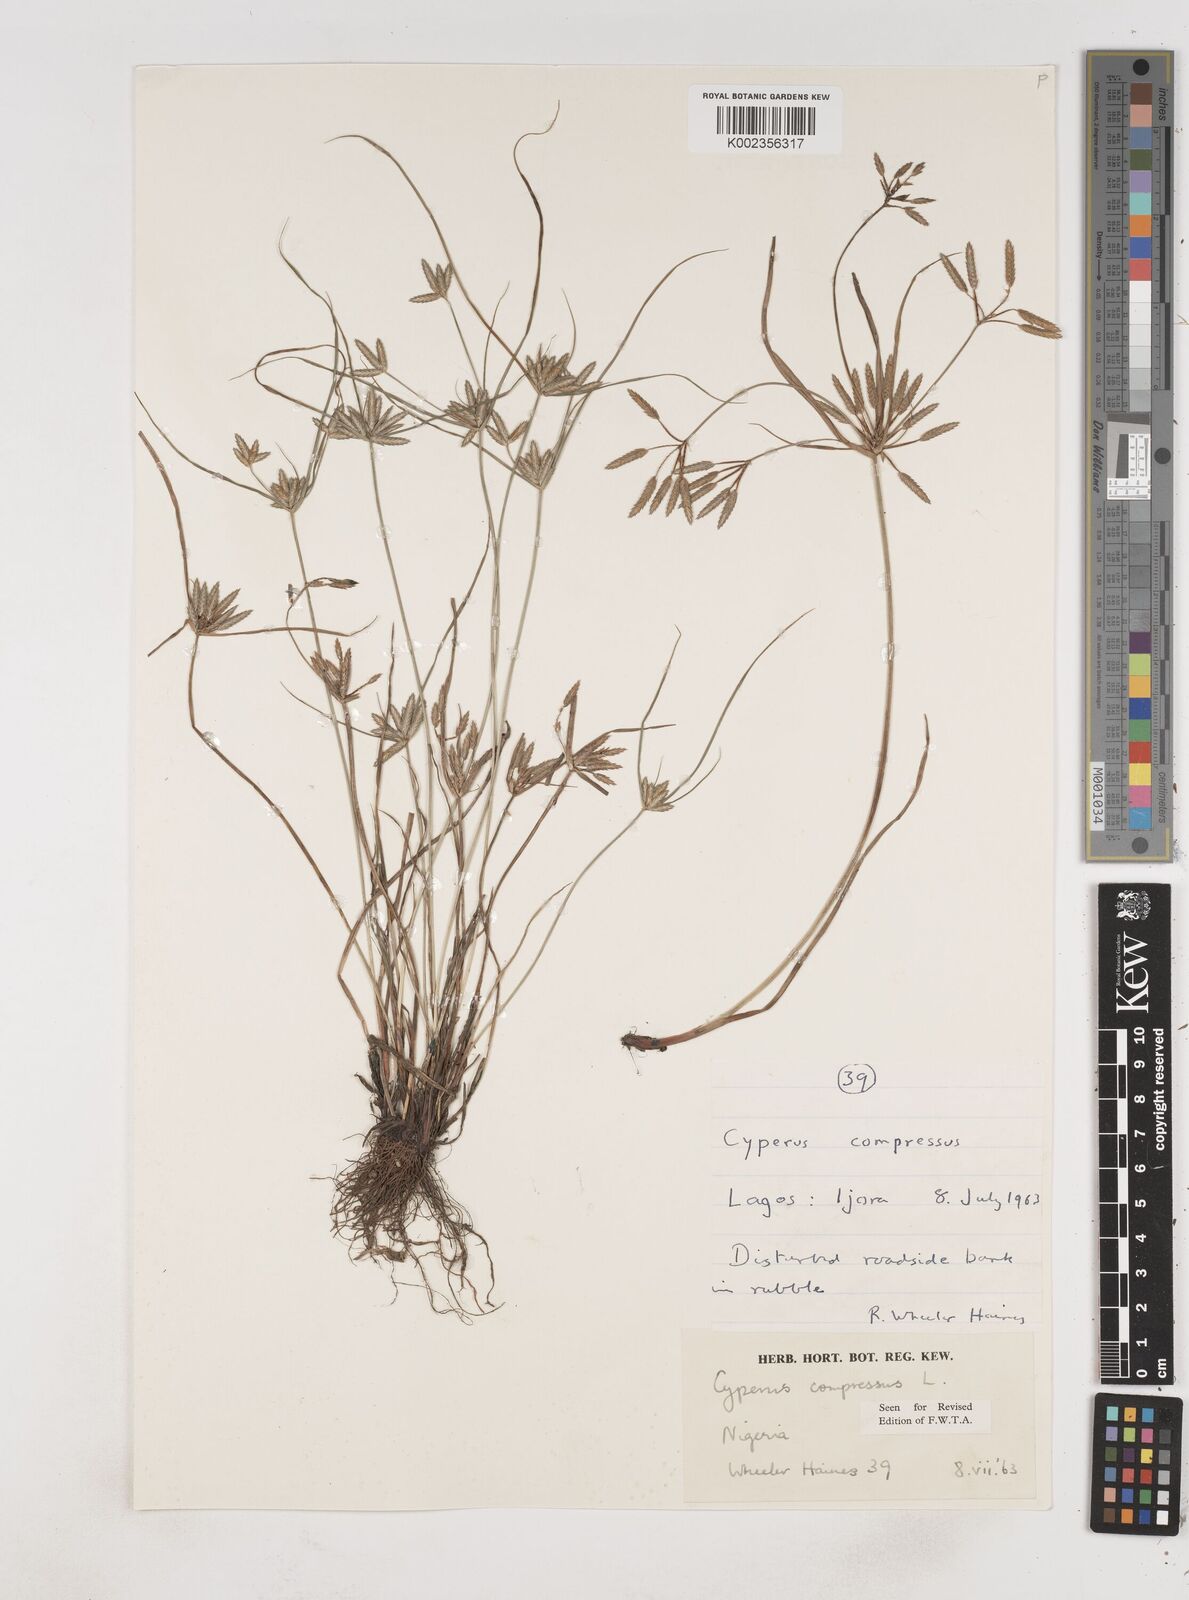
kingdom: Plantae
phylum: Tracheophyta
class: Liliopsida
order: Poales
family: Cyperaceae
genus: Cyperus
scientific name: Cyperus compressus
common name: Poorland flatsedge
